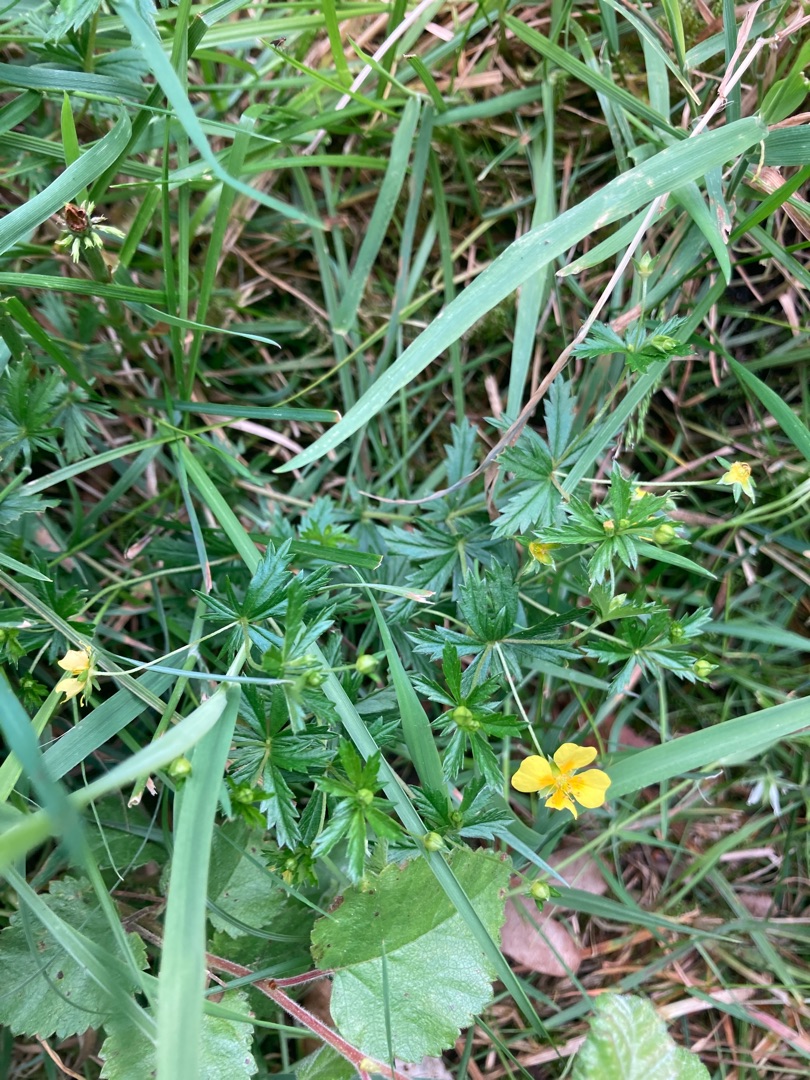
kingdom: Plantae
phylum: Tracheophyta
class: Magnoliopsida
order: Rosales
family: Rosaceae
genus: Potentilla
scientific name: Potentilla erecta
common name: Tormentil
